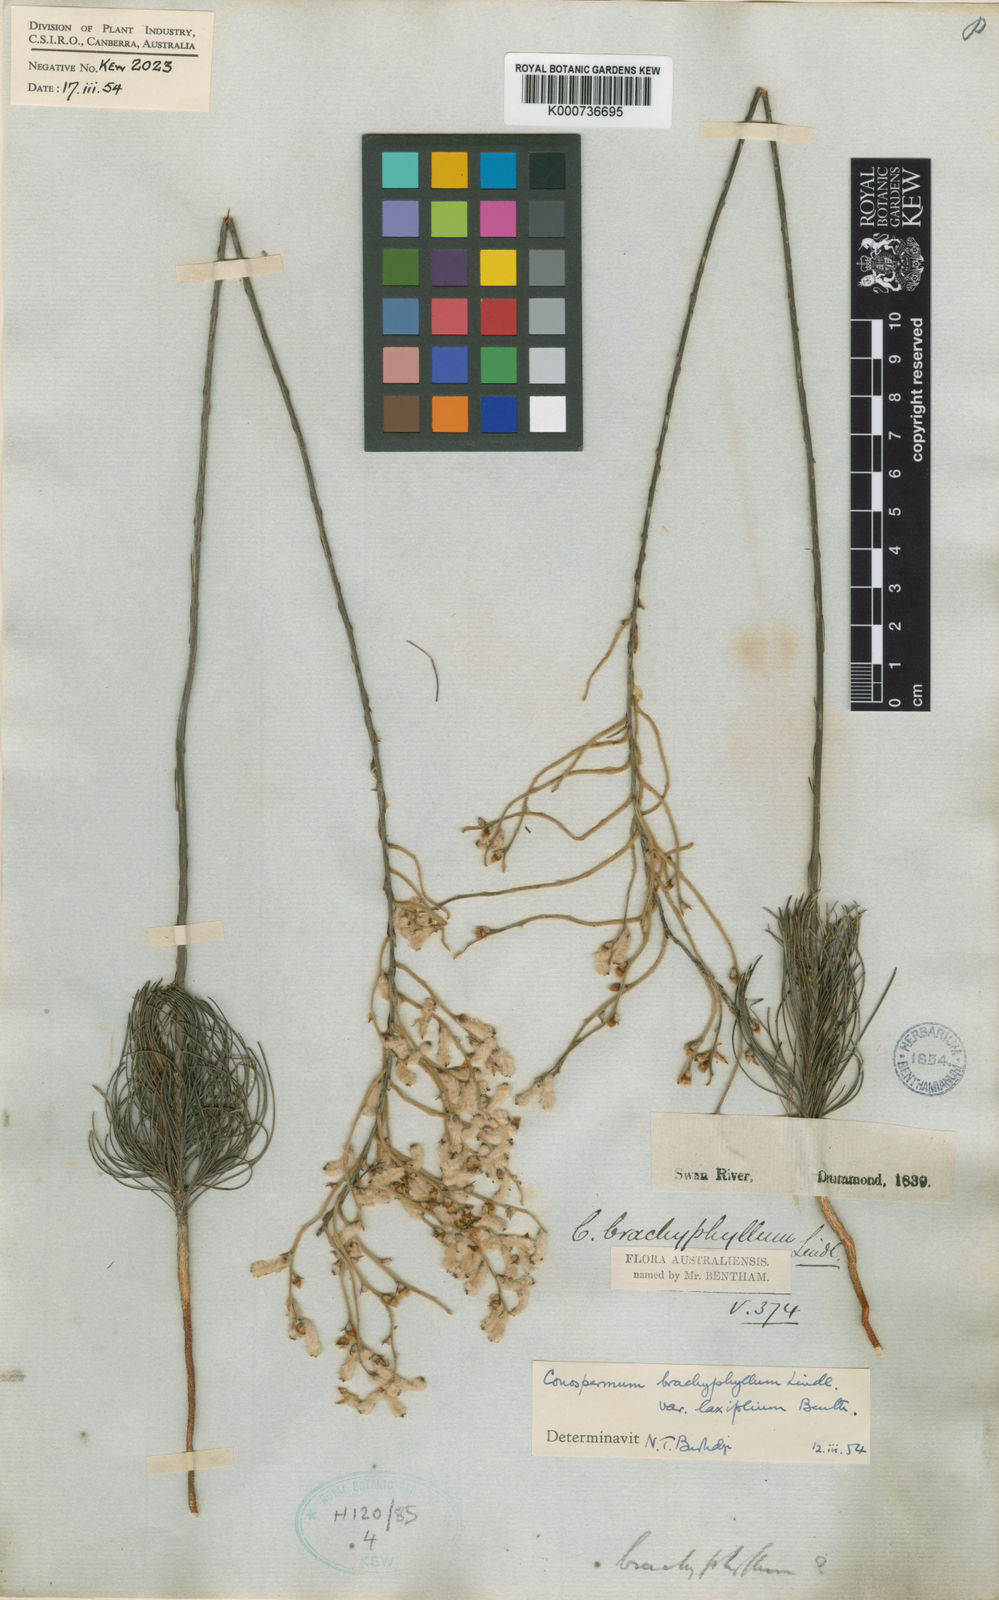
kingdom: Plantae
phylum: Tracheophyta
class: Magnoliopsida
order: Proteales
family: Proteaceae
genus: Conospermum
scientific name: Conospermum brachyphyllum
